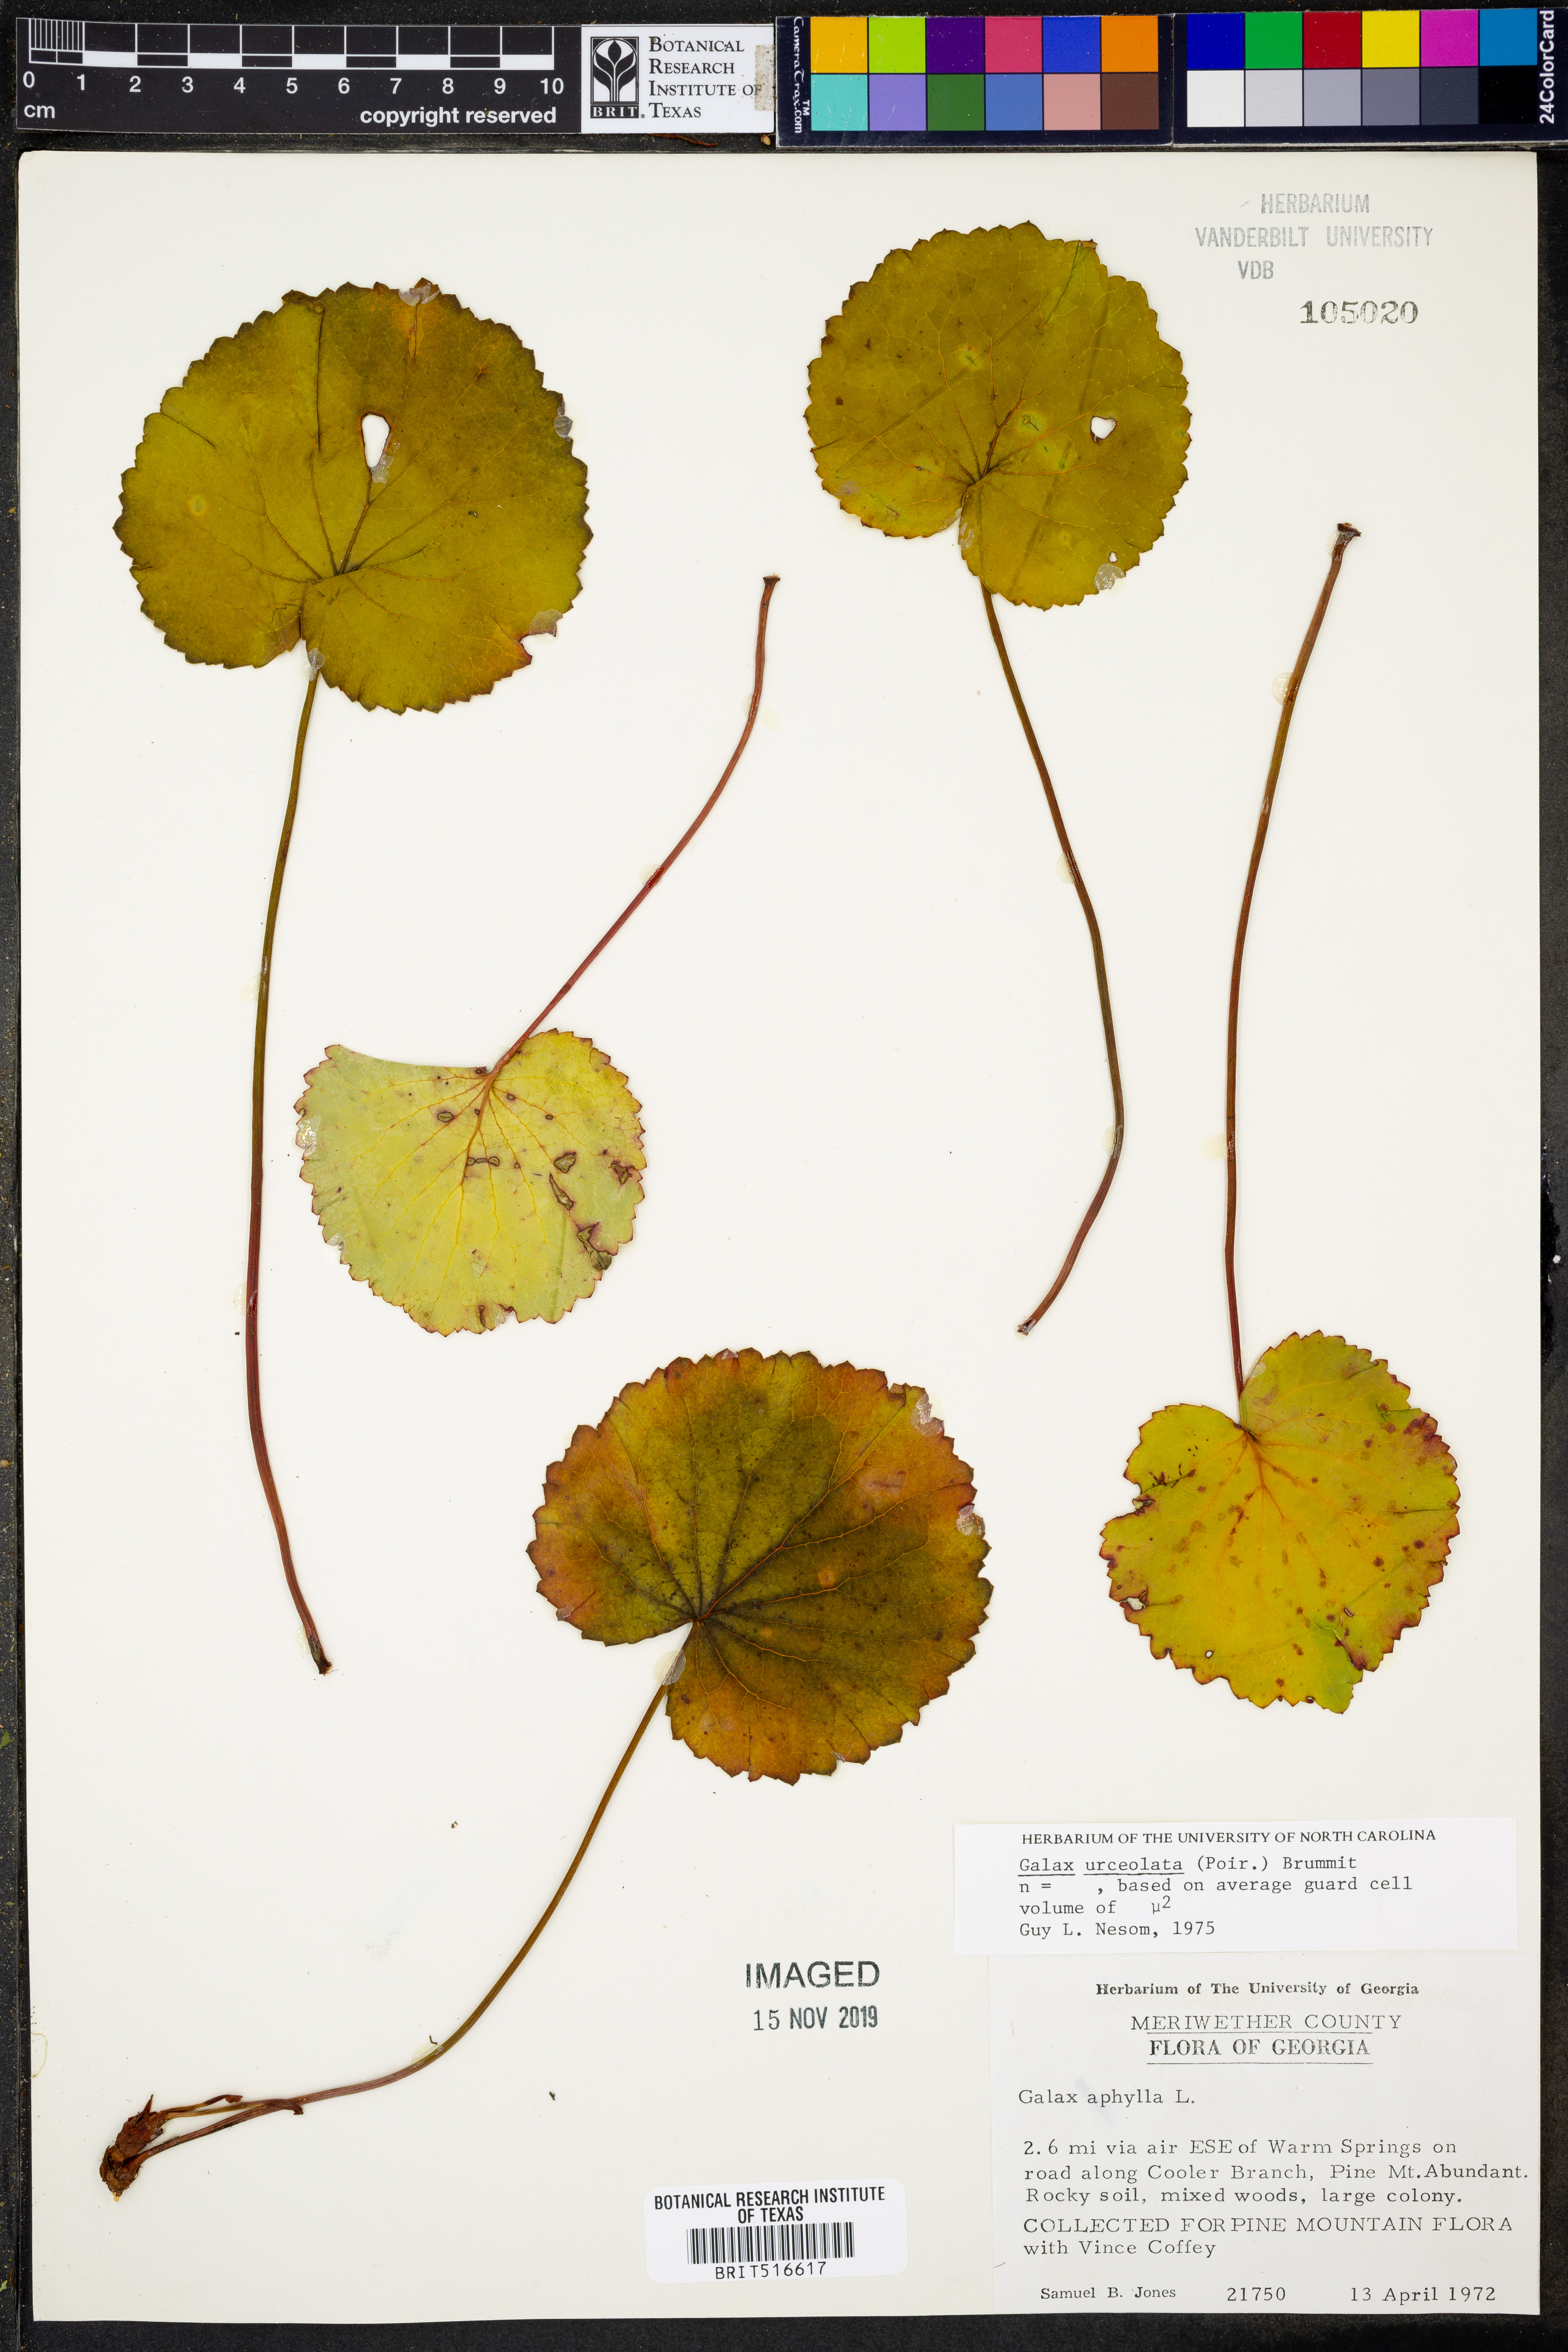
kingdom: Plantae
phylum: Tracheophyta
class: Magnoliopsida
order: Ericales
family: Diapensiaceae
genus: Galax
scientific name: Galax urceolata
